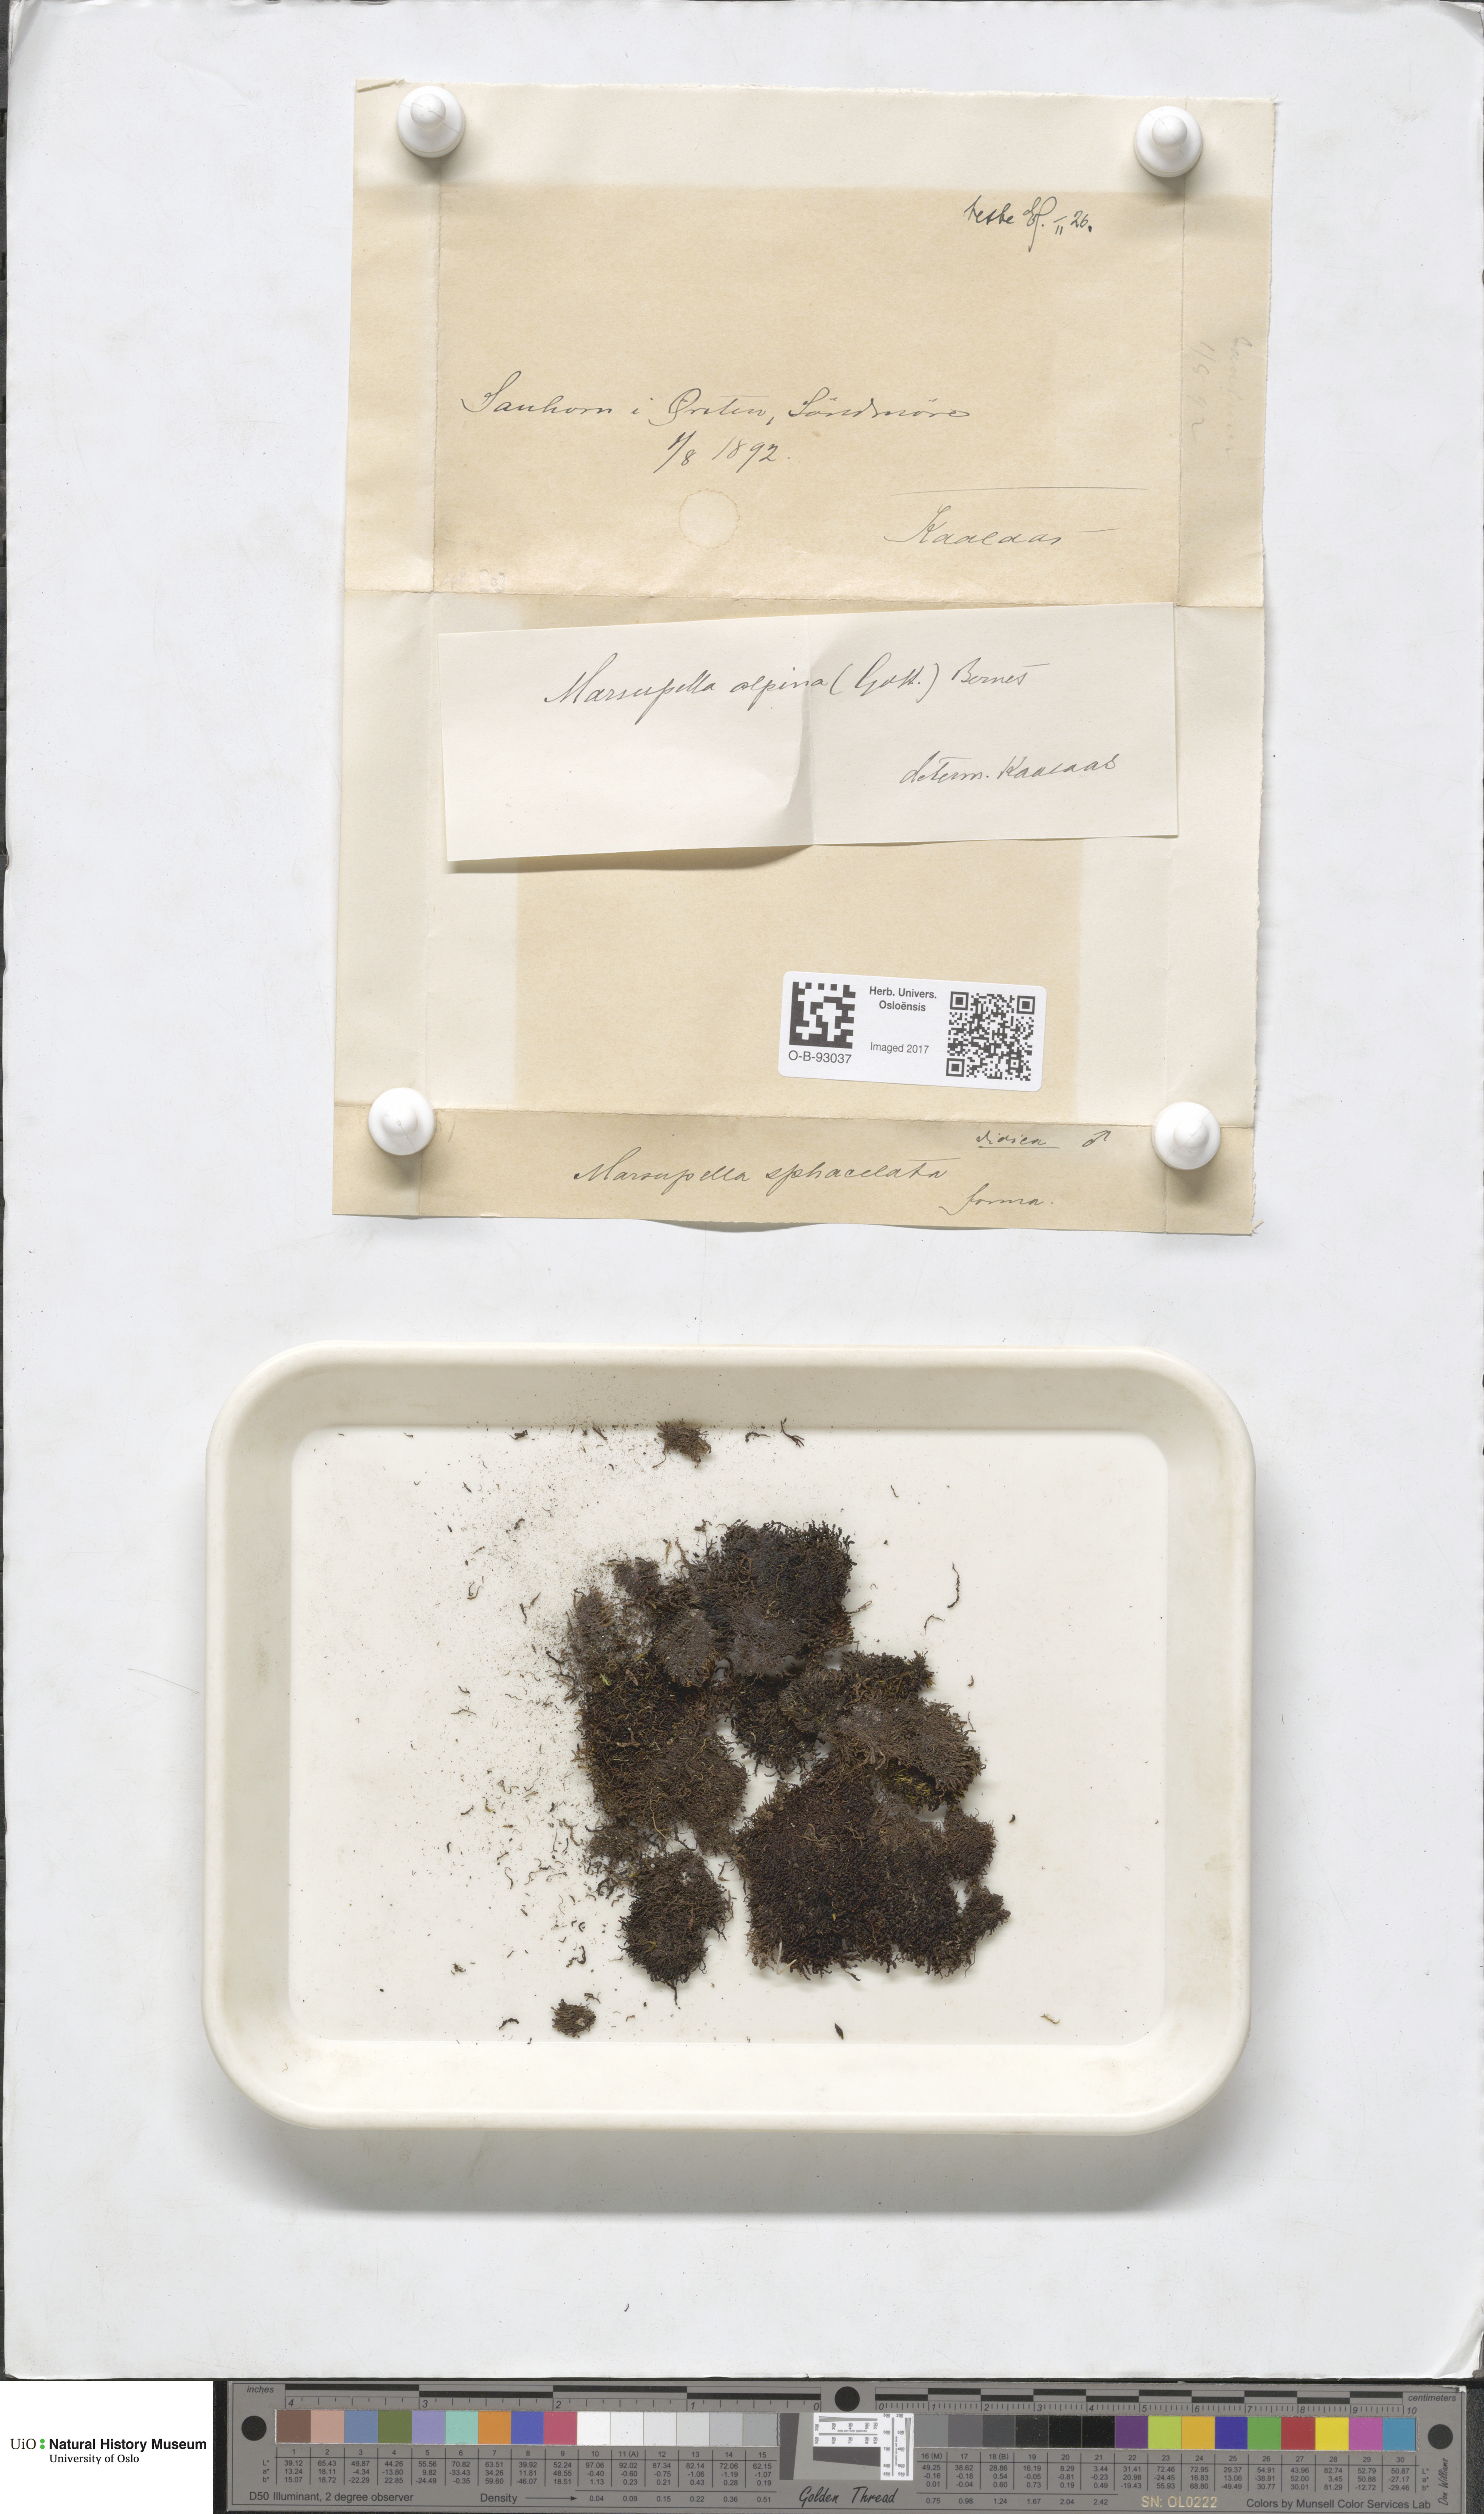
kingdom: Plantae
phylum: Marchantiophyta
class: Jungermanniopsida
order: Jungermanniales
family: Gymnomitriaceae
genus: Gymnomitrion
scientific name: Gymnomitrion alpinum
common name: Alpine rustwort
